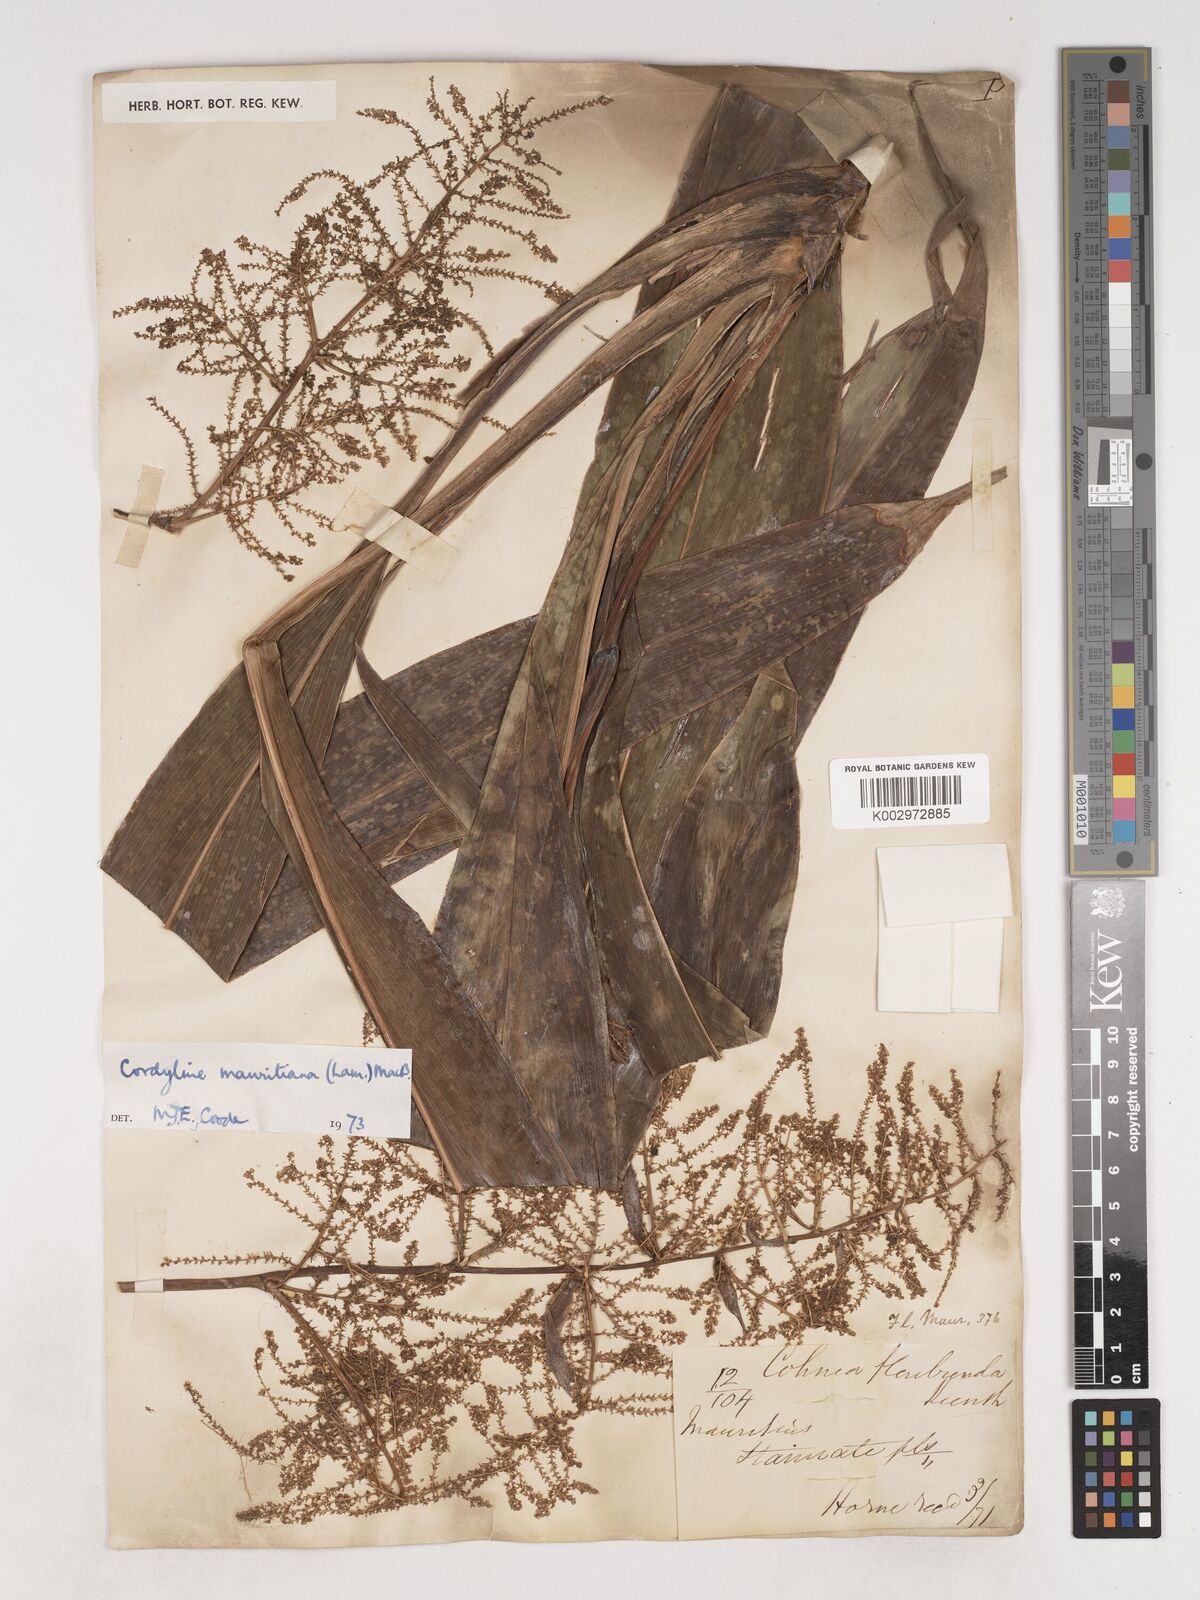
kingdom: Plantae
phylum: Tracheophyta
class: Liliopsida
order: Asparagales
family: Asparagaceae
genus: Cordyline
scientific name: Cordyline mauritiana
